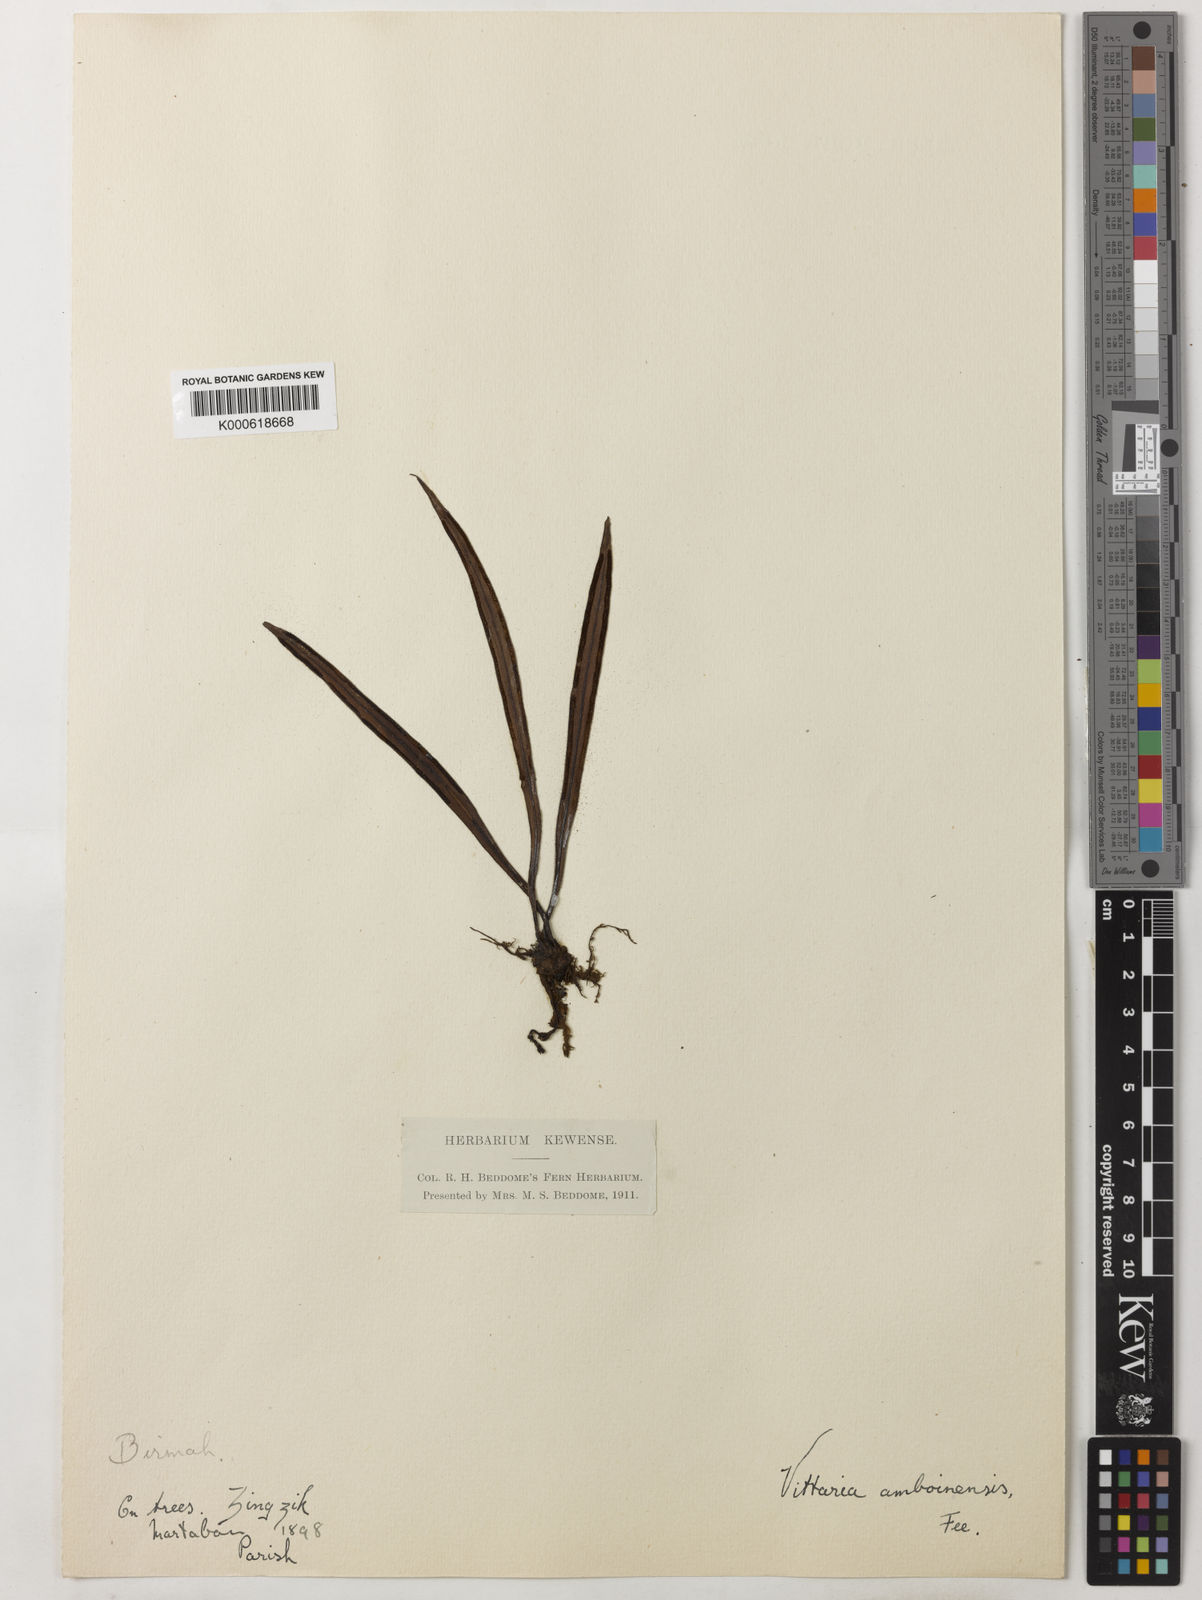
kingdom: Plantae
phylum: Tracheophyta
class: Polypodiopsida
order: Polypodiales
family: Pteridaceae
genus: Vittaria
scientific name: Vittaria
